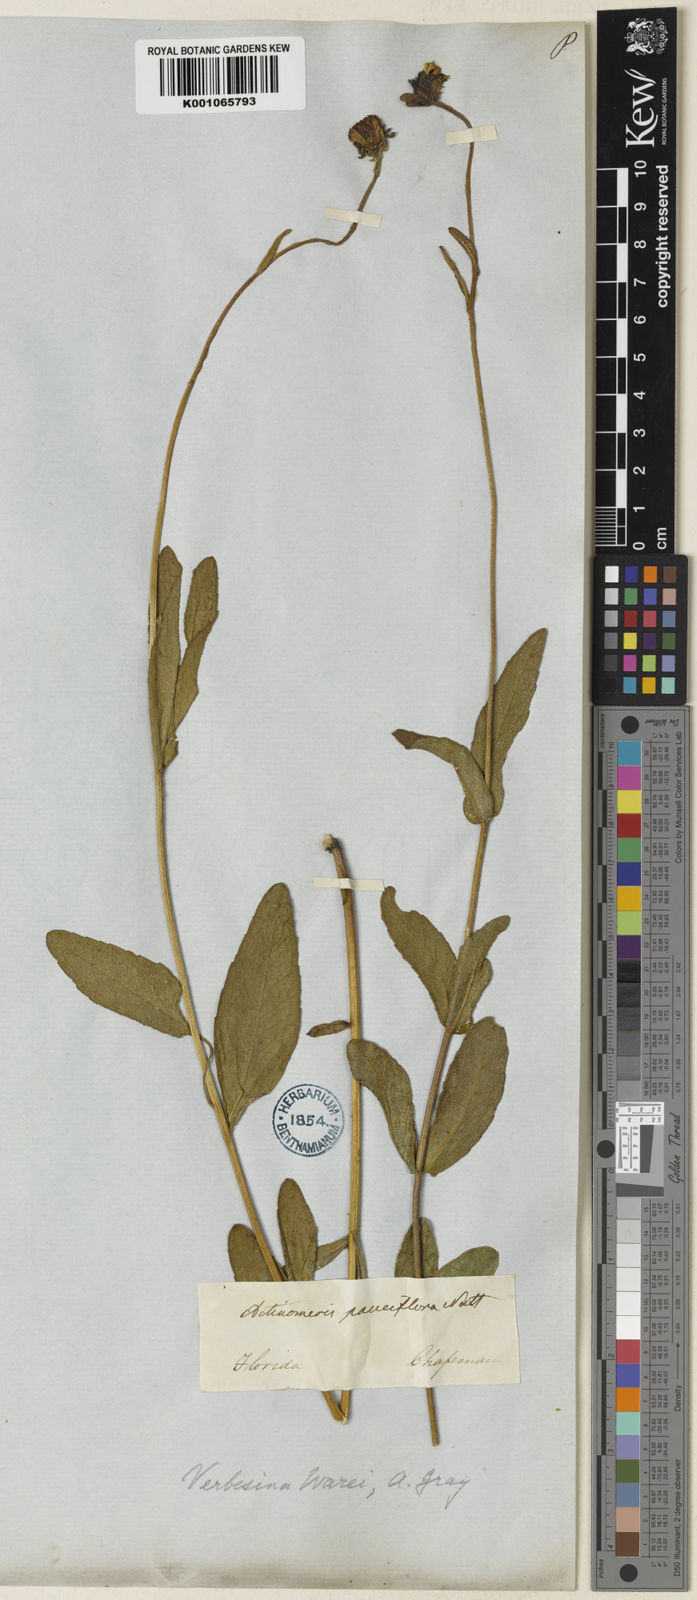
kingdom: Plantae
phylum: Tracheophyta
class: Magnoliopsida
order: Asterales
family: Asteraceae
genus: Verbesina
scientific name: Verbesina heterophylla
